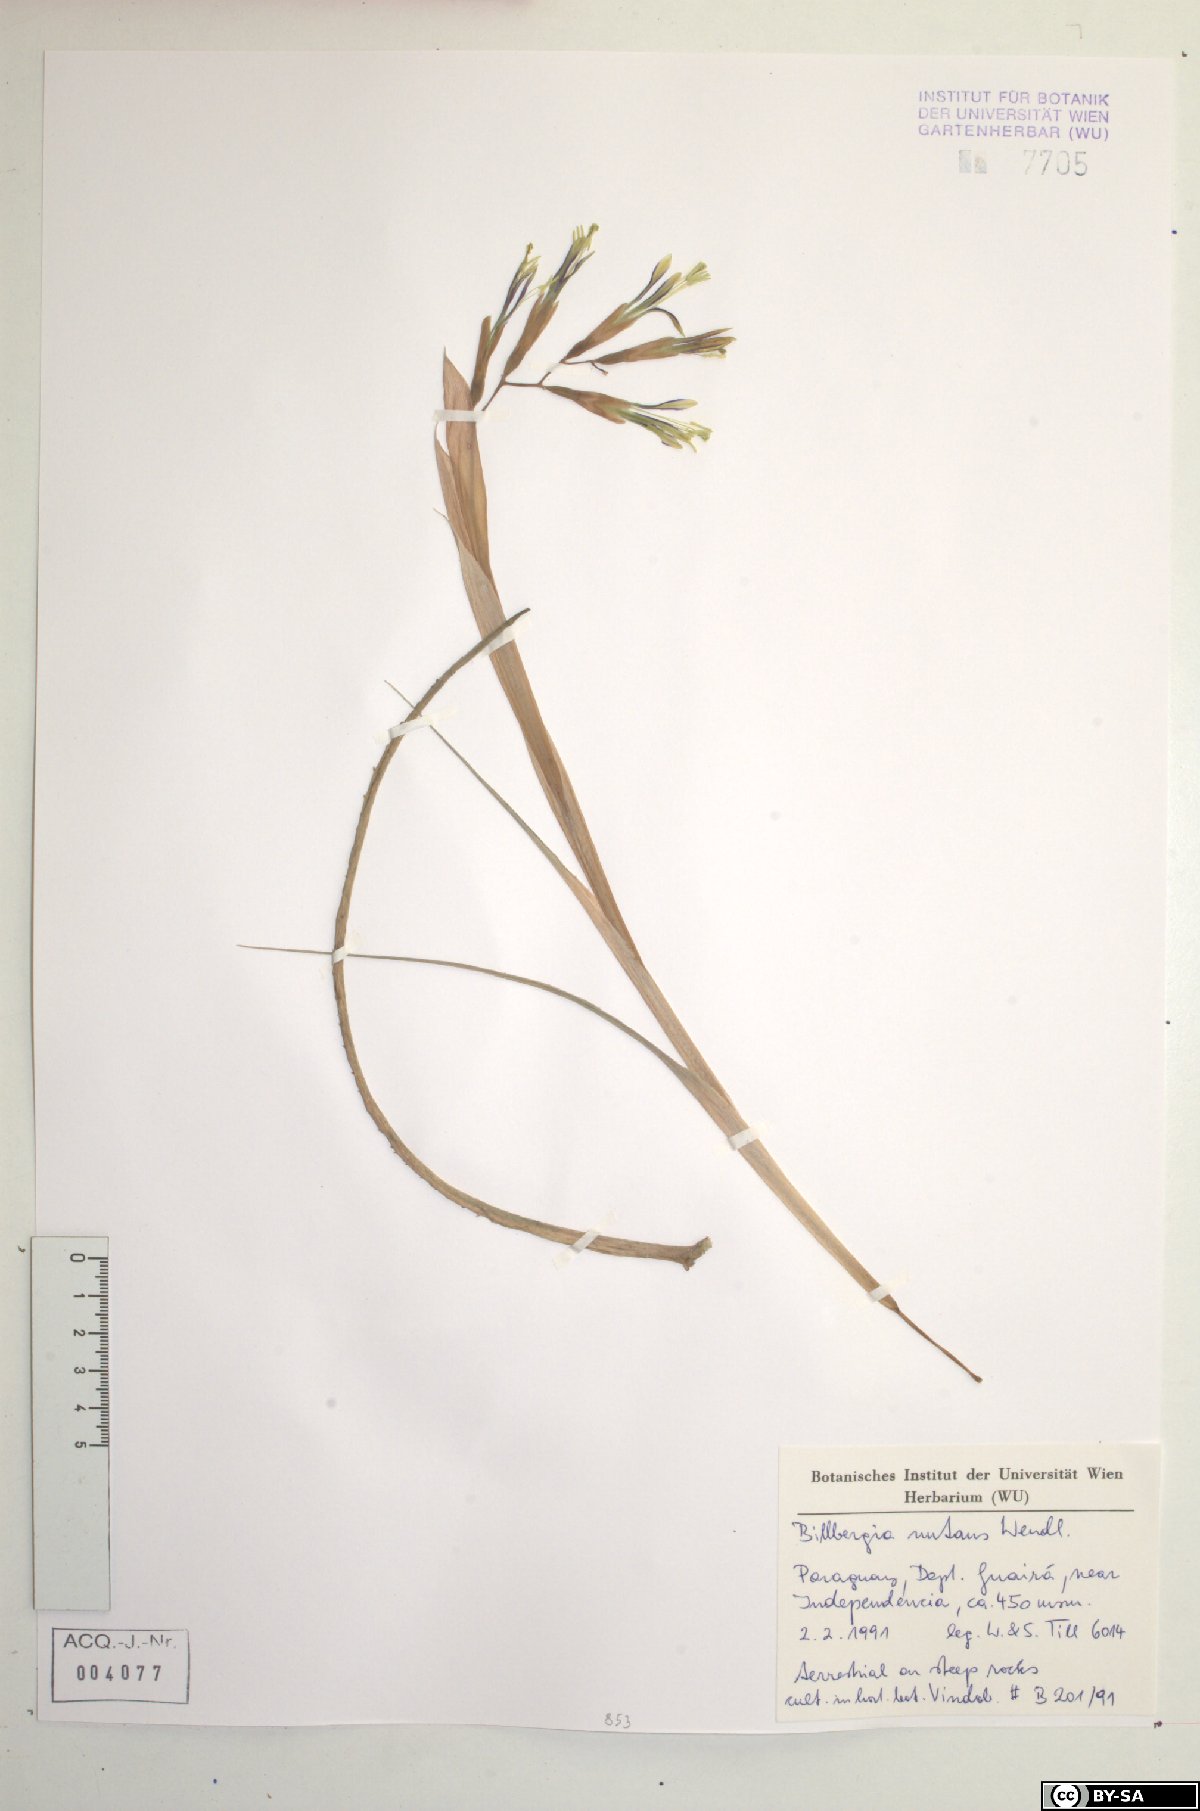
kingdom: Plantae
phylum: Tracheophyta
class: Liliopsida
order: Poales
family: Bromeliaceae
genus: Billbergia
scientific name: Billbergia nutans
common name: Friendship-plant
